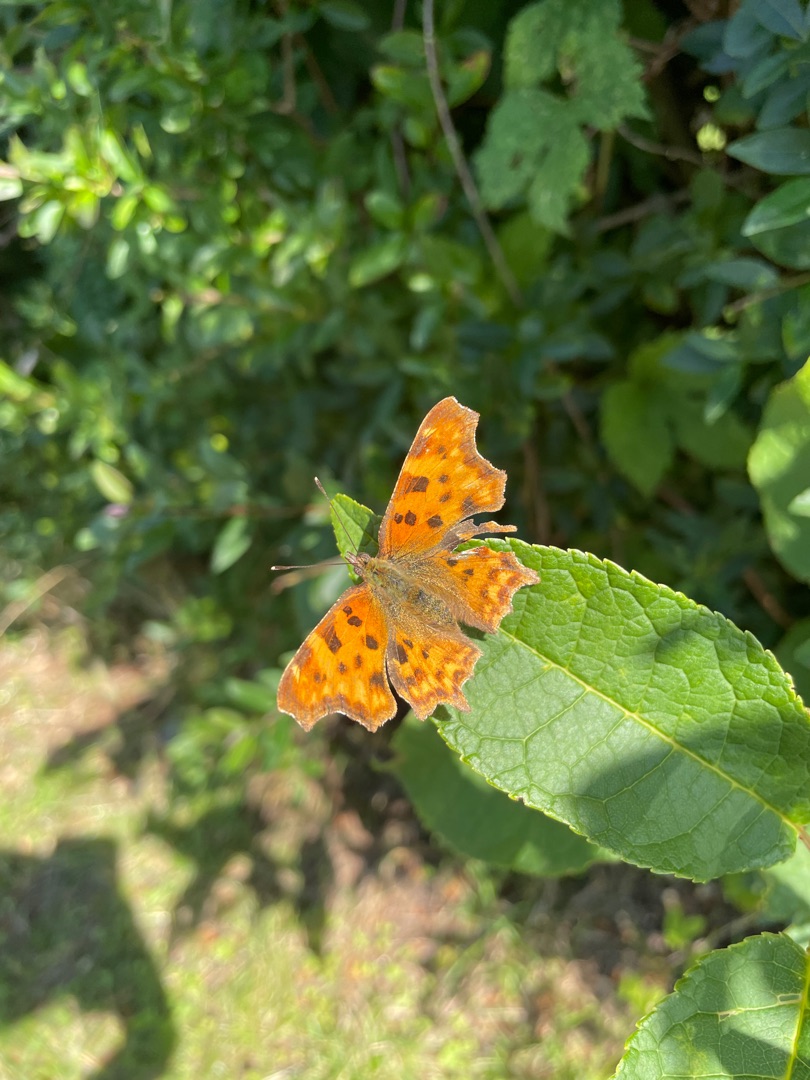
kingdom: Animalia
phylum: Arthropoda
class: Insecta
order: Lepidoptera
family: Nymphalidae
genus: Polygonia
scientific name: Polygonia c-album
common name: Det hvide C
